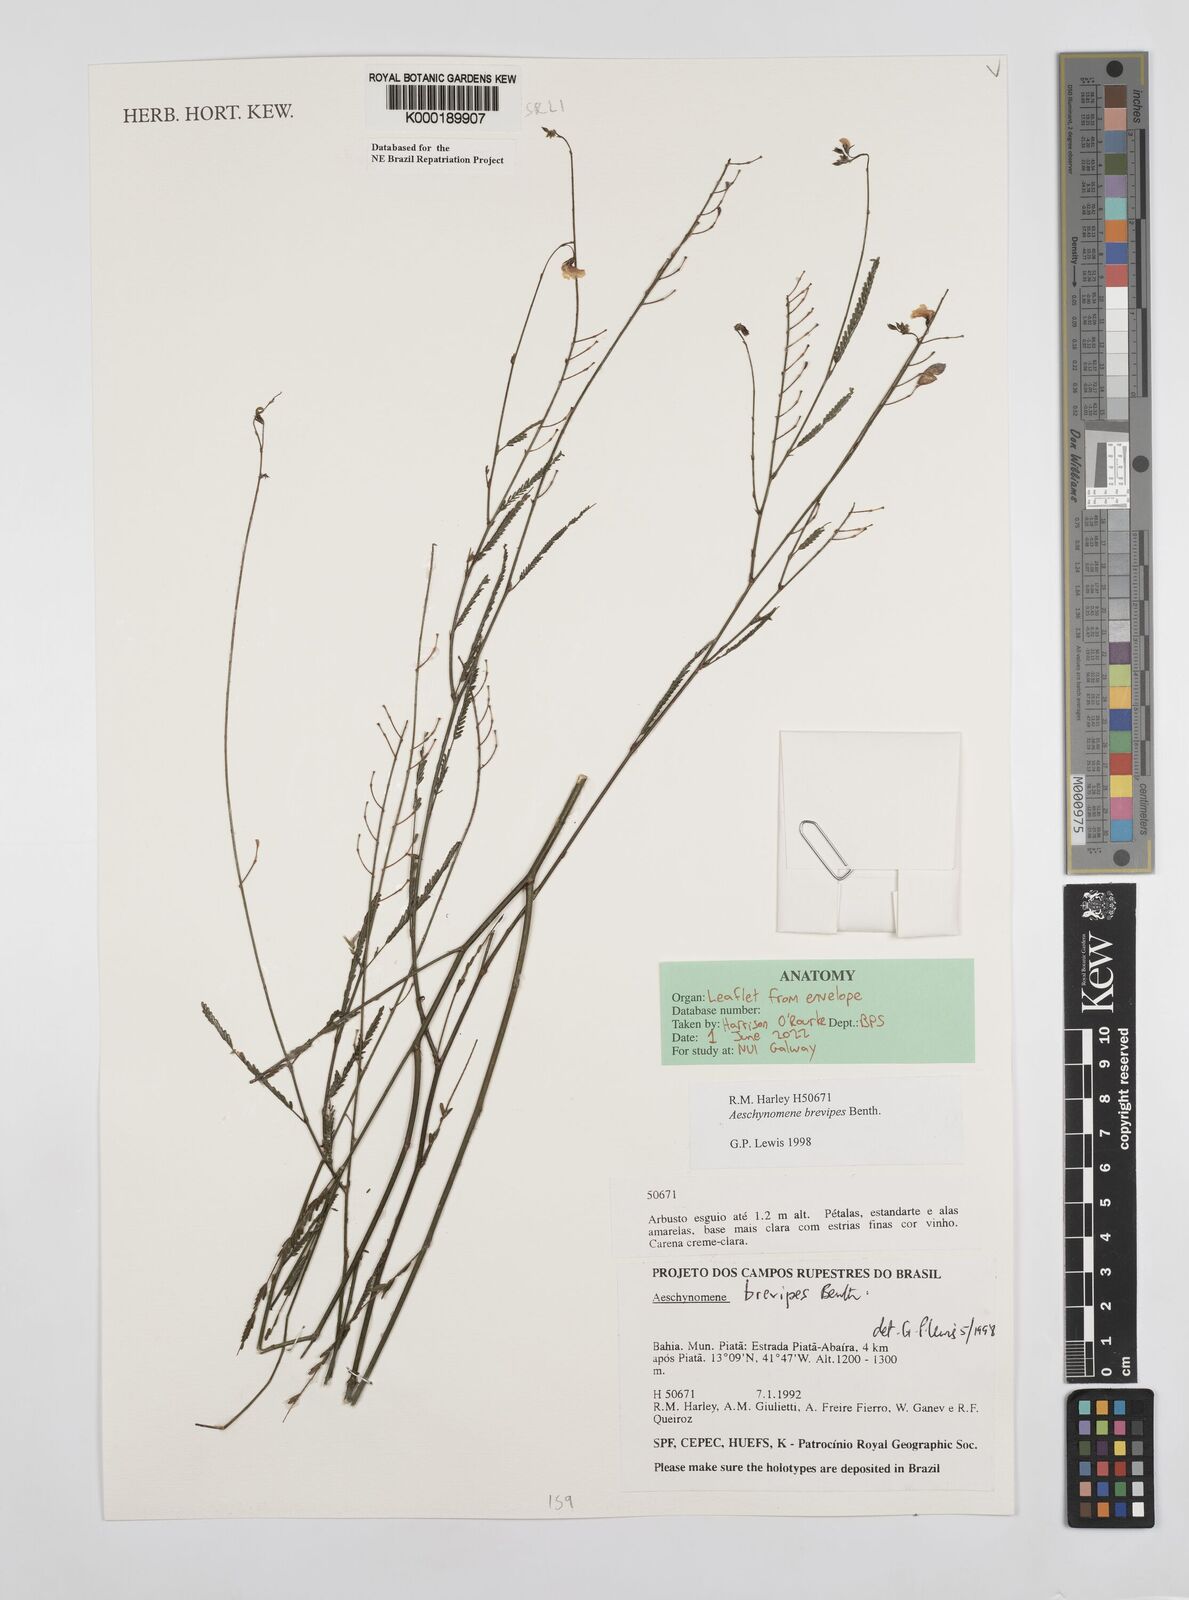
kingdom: Plantae
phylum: Tracheophyta
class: Magnoliopsida
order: Fabales
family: Fabaceae
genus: Ctenodon
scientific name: Ctenodon brevipes
